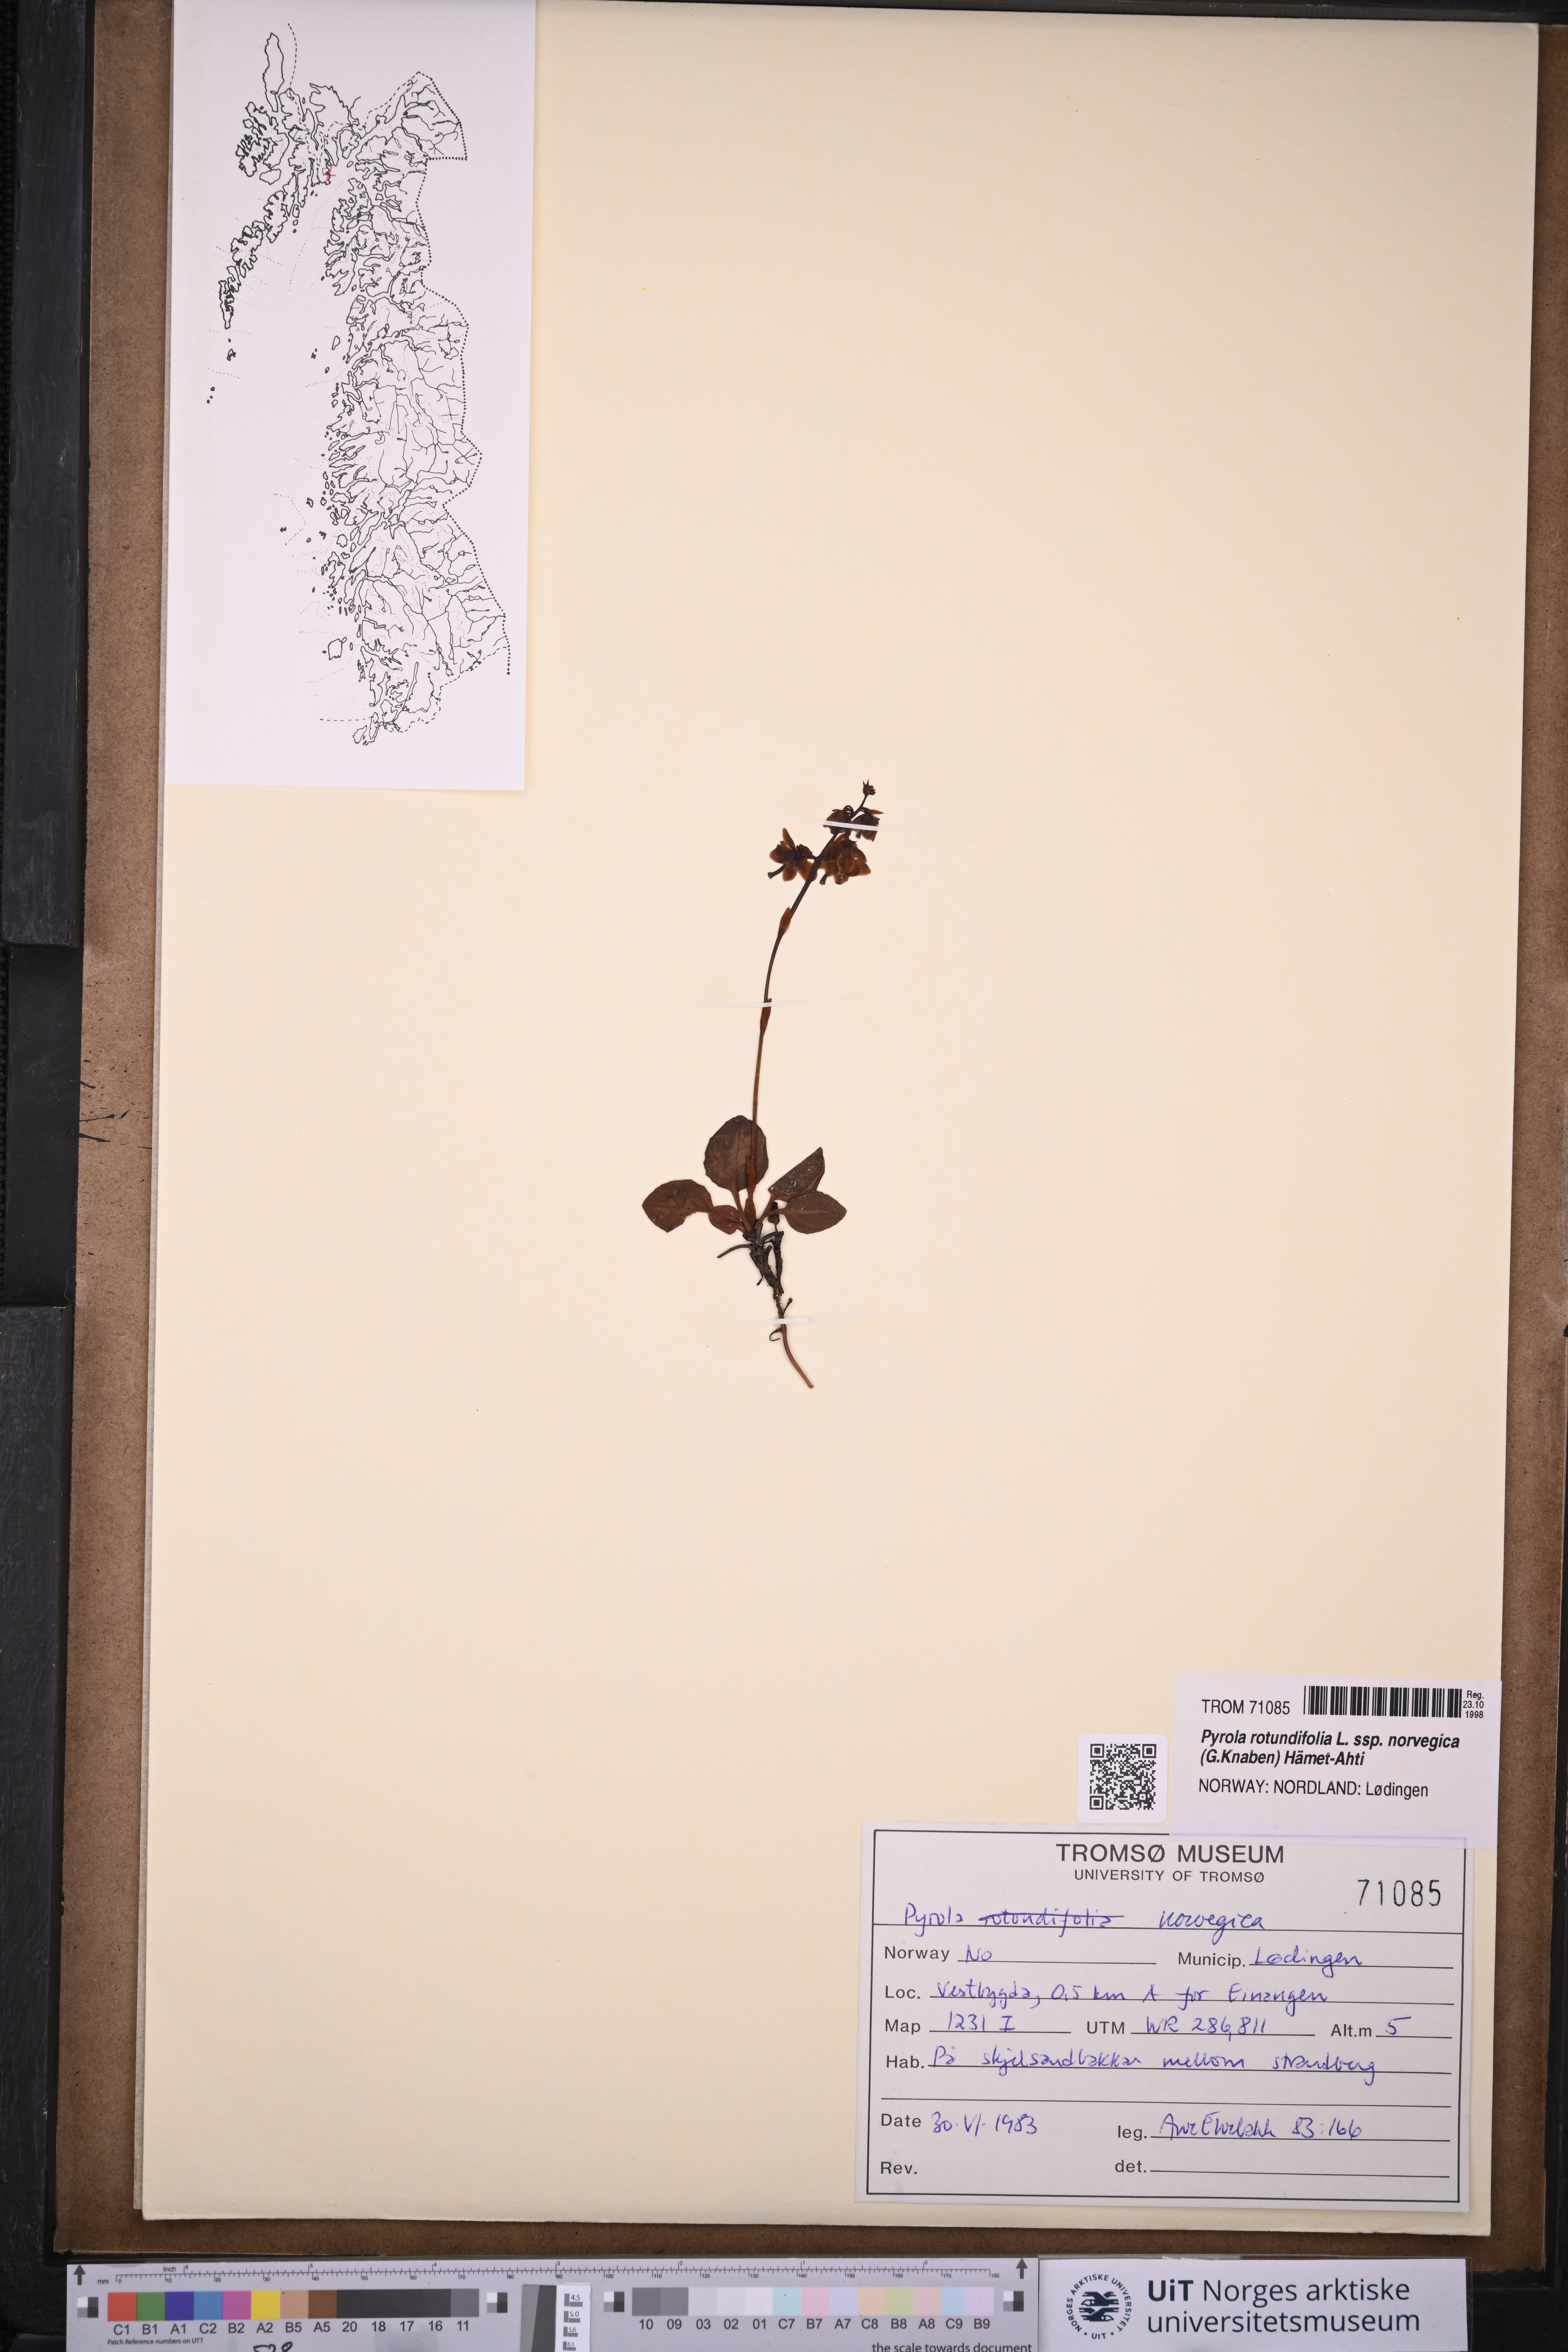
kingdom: Plantae
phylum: Tracheophyta
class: Magnoliopsida
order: Ericales
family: Ericaceae
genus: Pyrola
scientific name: Pyrola rotundifolia
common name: Round-leaved wintergreen
